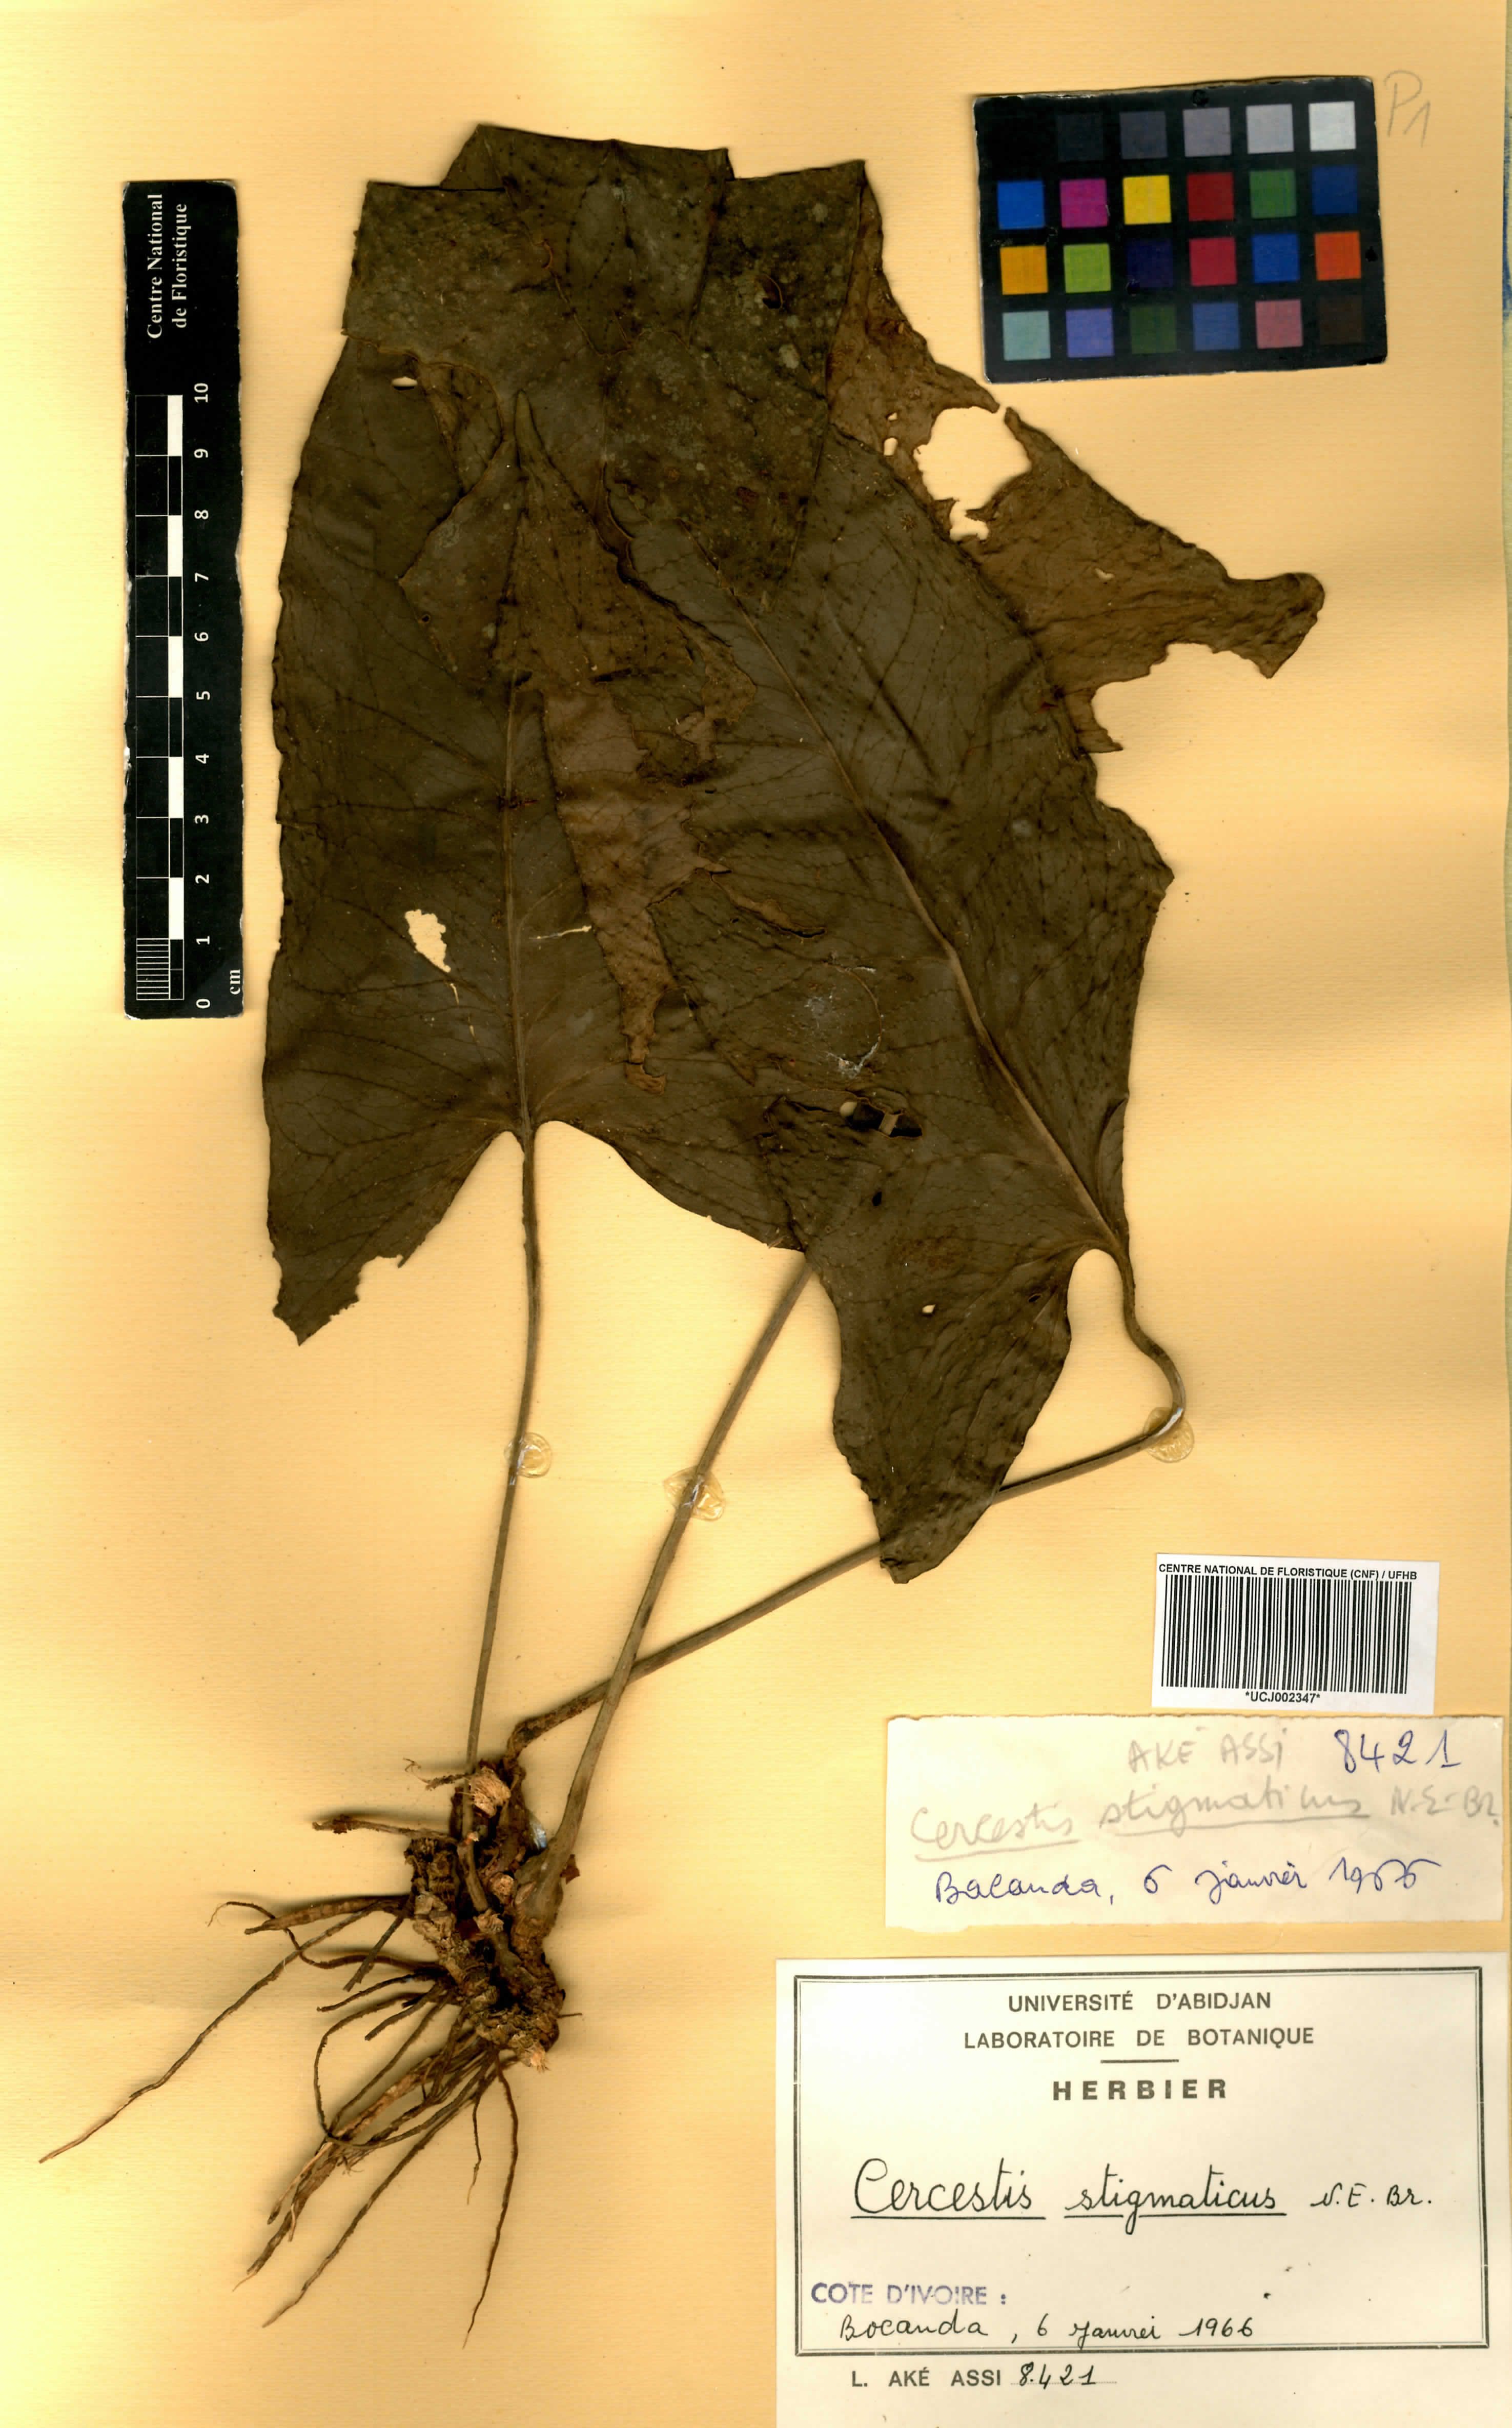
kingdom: Plantae
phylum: Tracheophyta
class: Liliopsida
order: Alismatales
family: Araceae
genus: Cercestis
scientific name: Cercestis dinklagei
